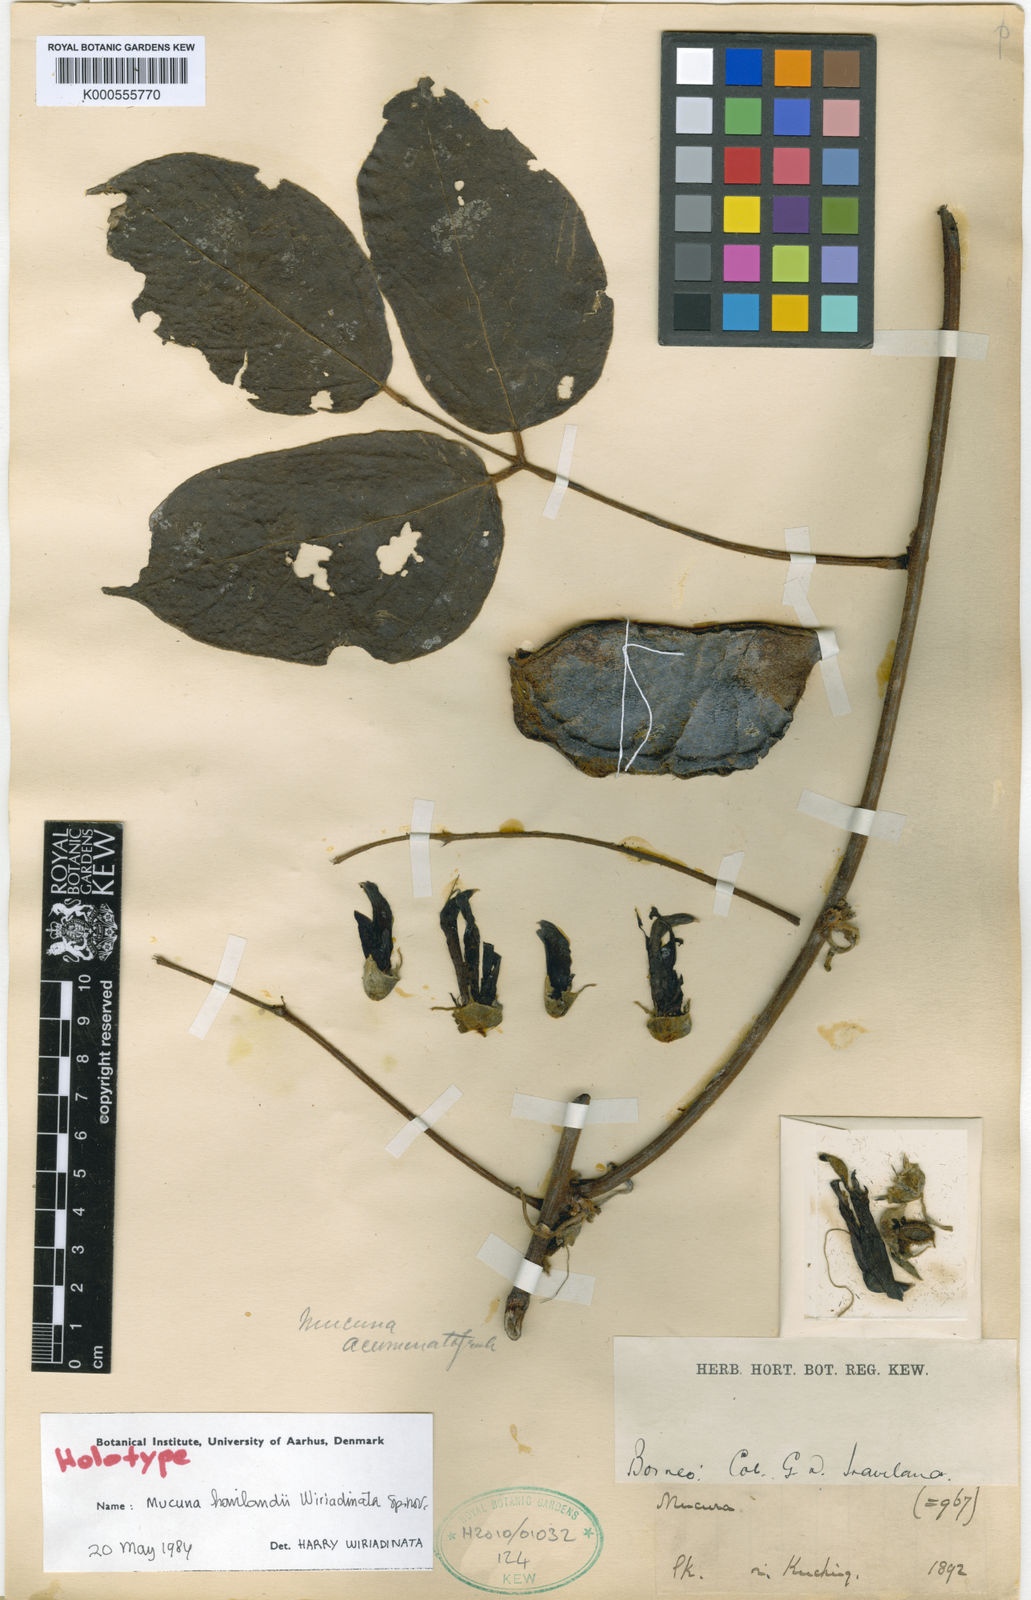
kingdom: Plantae
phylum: Tracheophyta
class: Magnoliopsida
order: Fabales
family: Fabaceae
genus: Mucuna
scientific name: Mucuna havilandii
